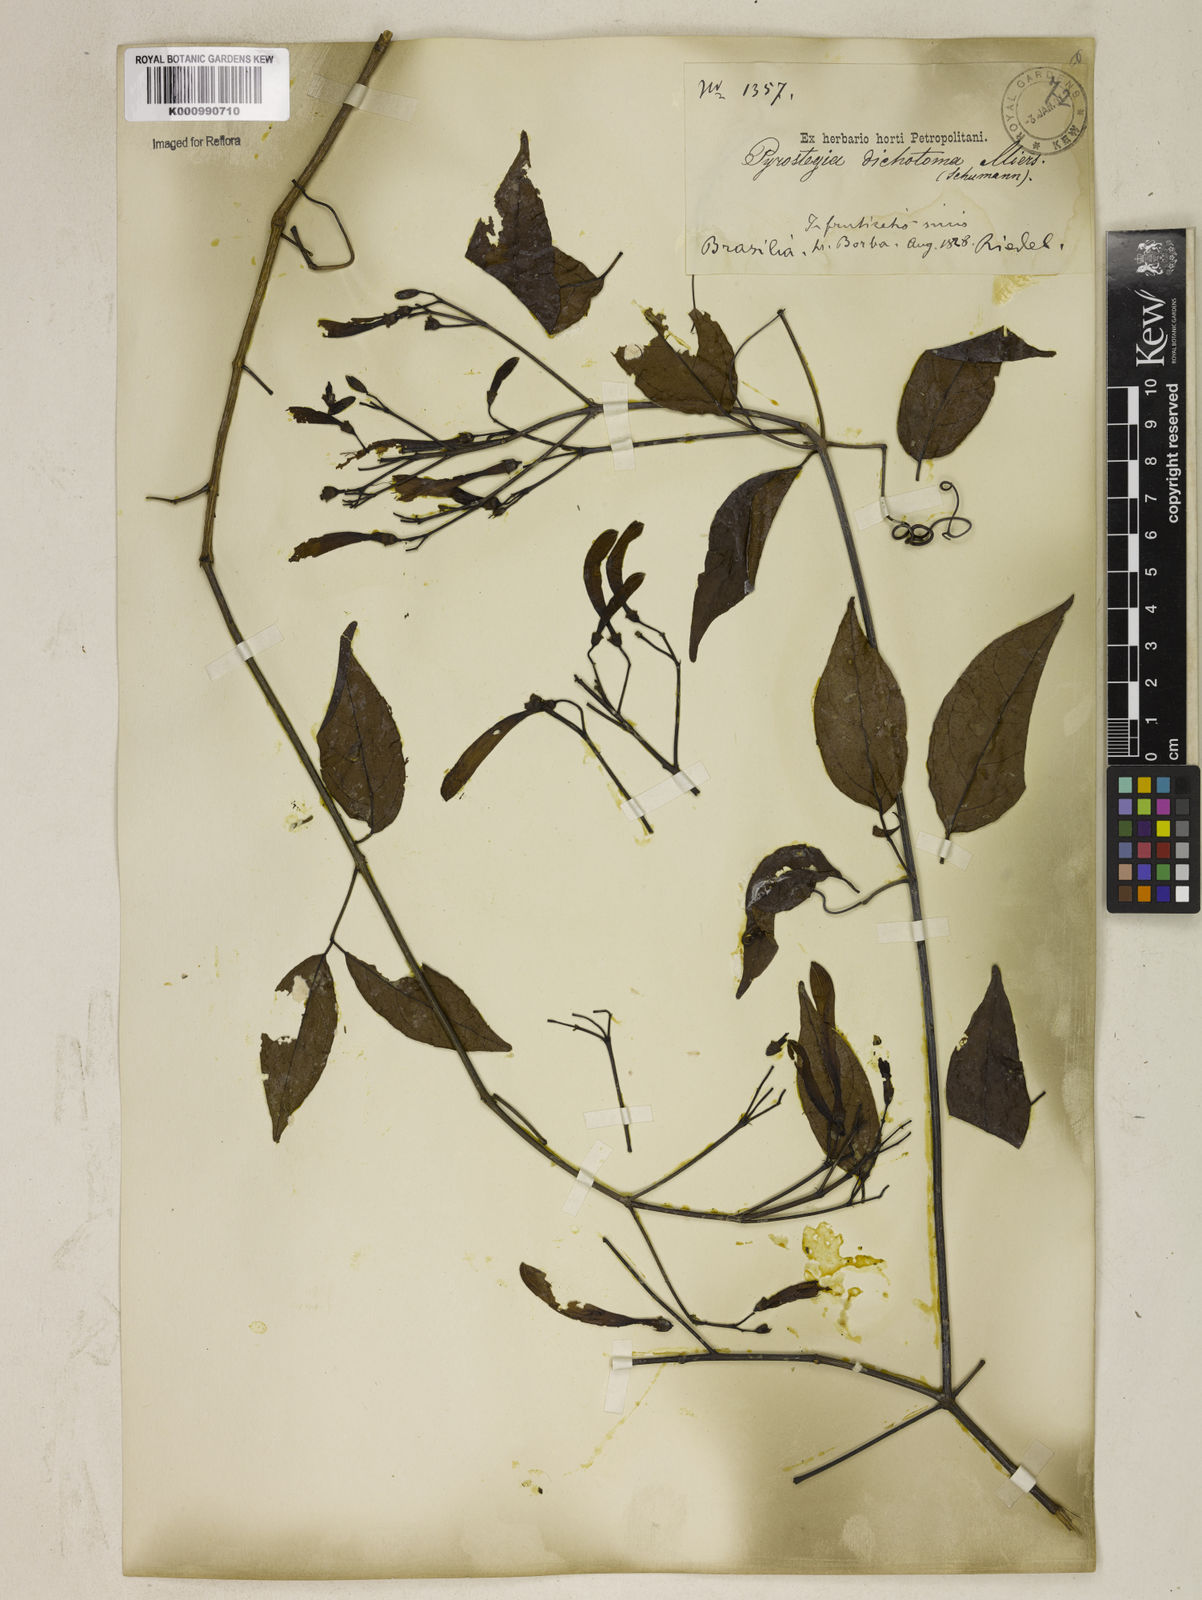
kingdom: Plantae
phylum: Tracheophyta
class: Magnoliopsida
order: Lamiales
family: Bignoniaceae
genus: Pyrostegia
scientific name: Pyrostegia
